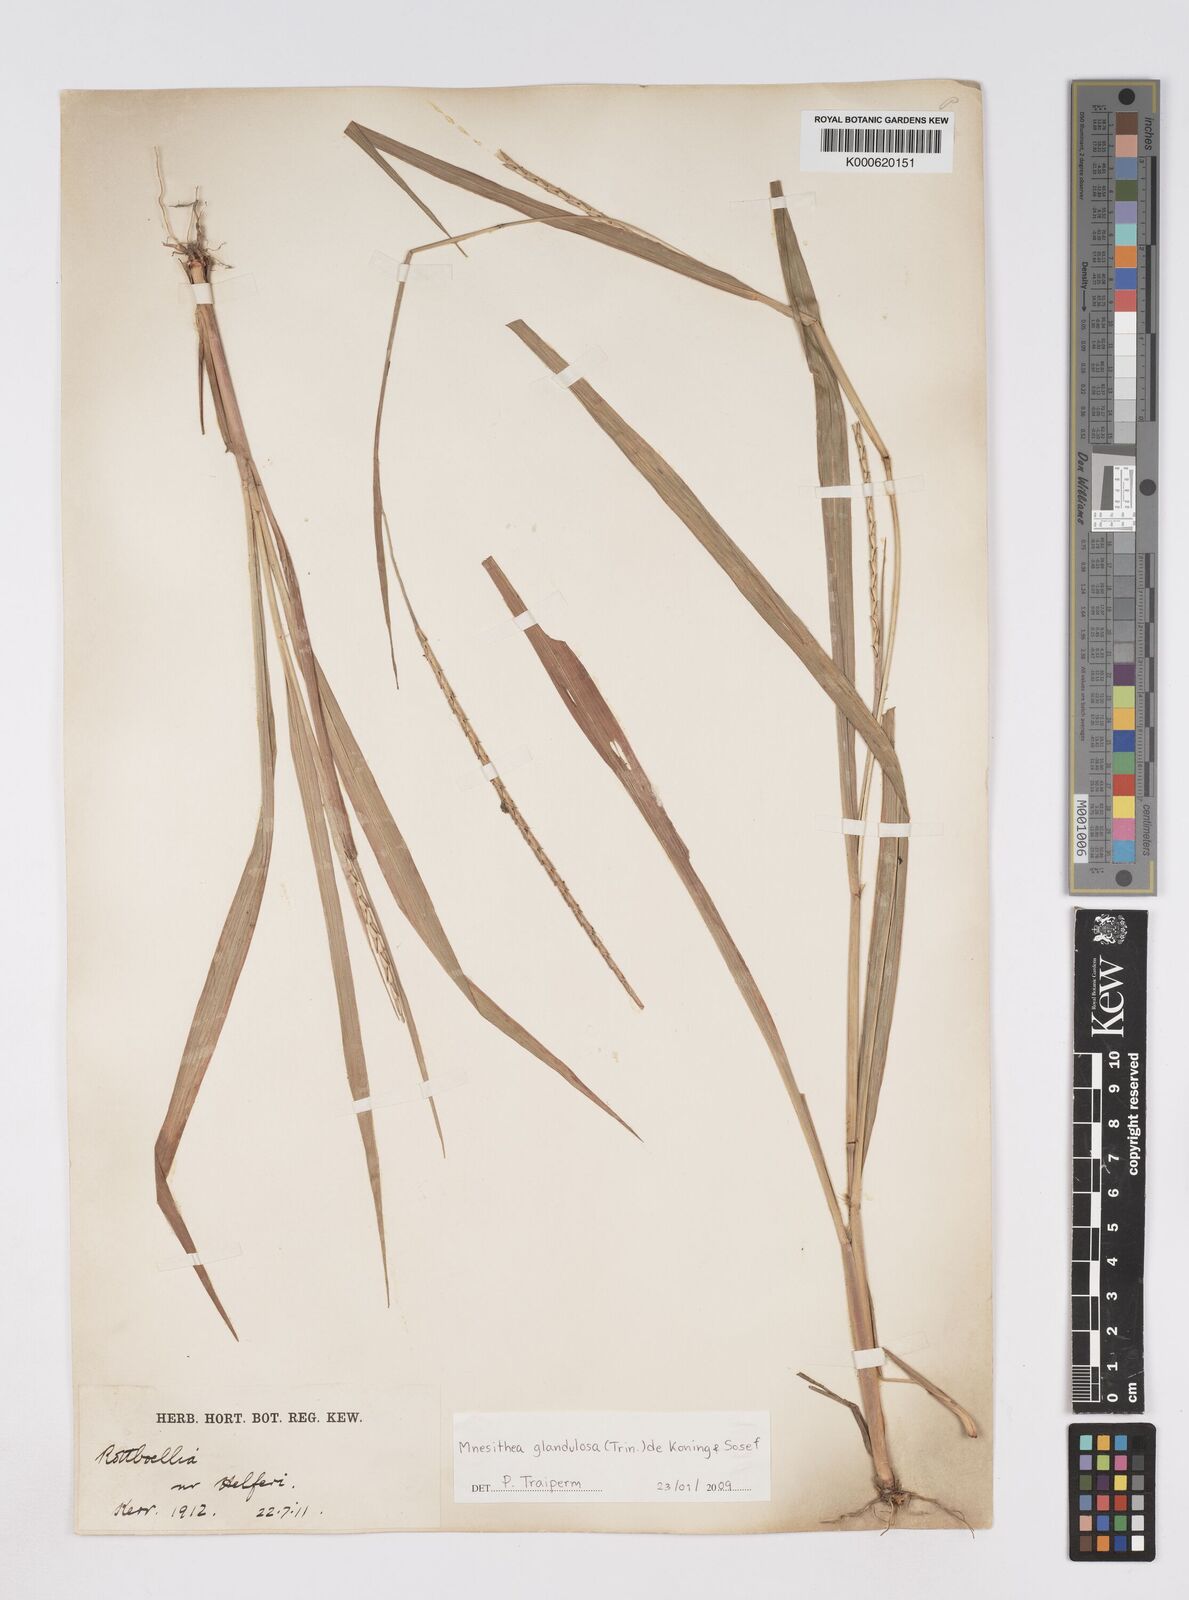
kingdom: Plantae
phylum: Tracheophyta
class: Liliopsida
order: Poales
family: Poaceae
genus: Rottboellia
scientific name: Rottboellia glandulosa
